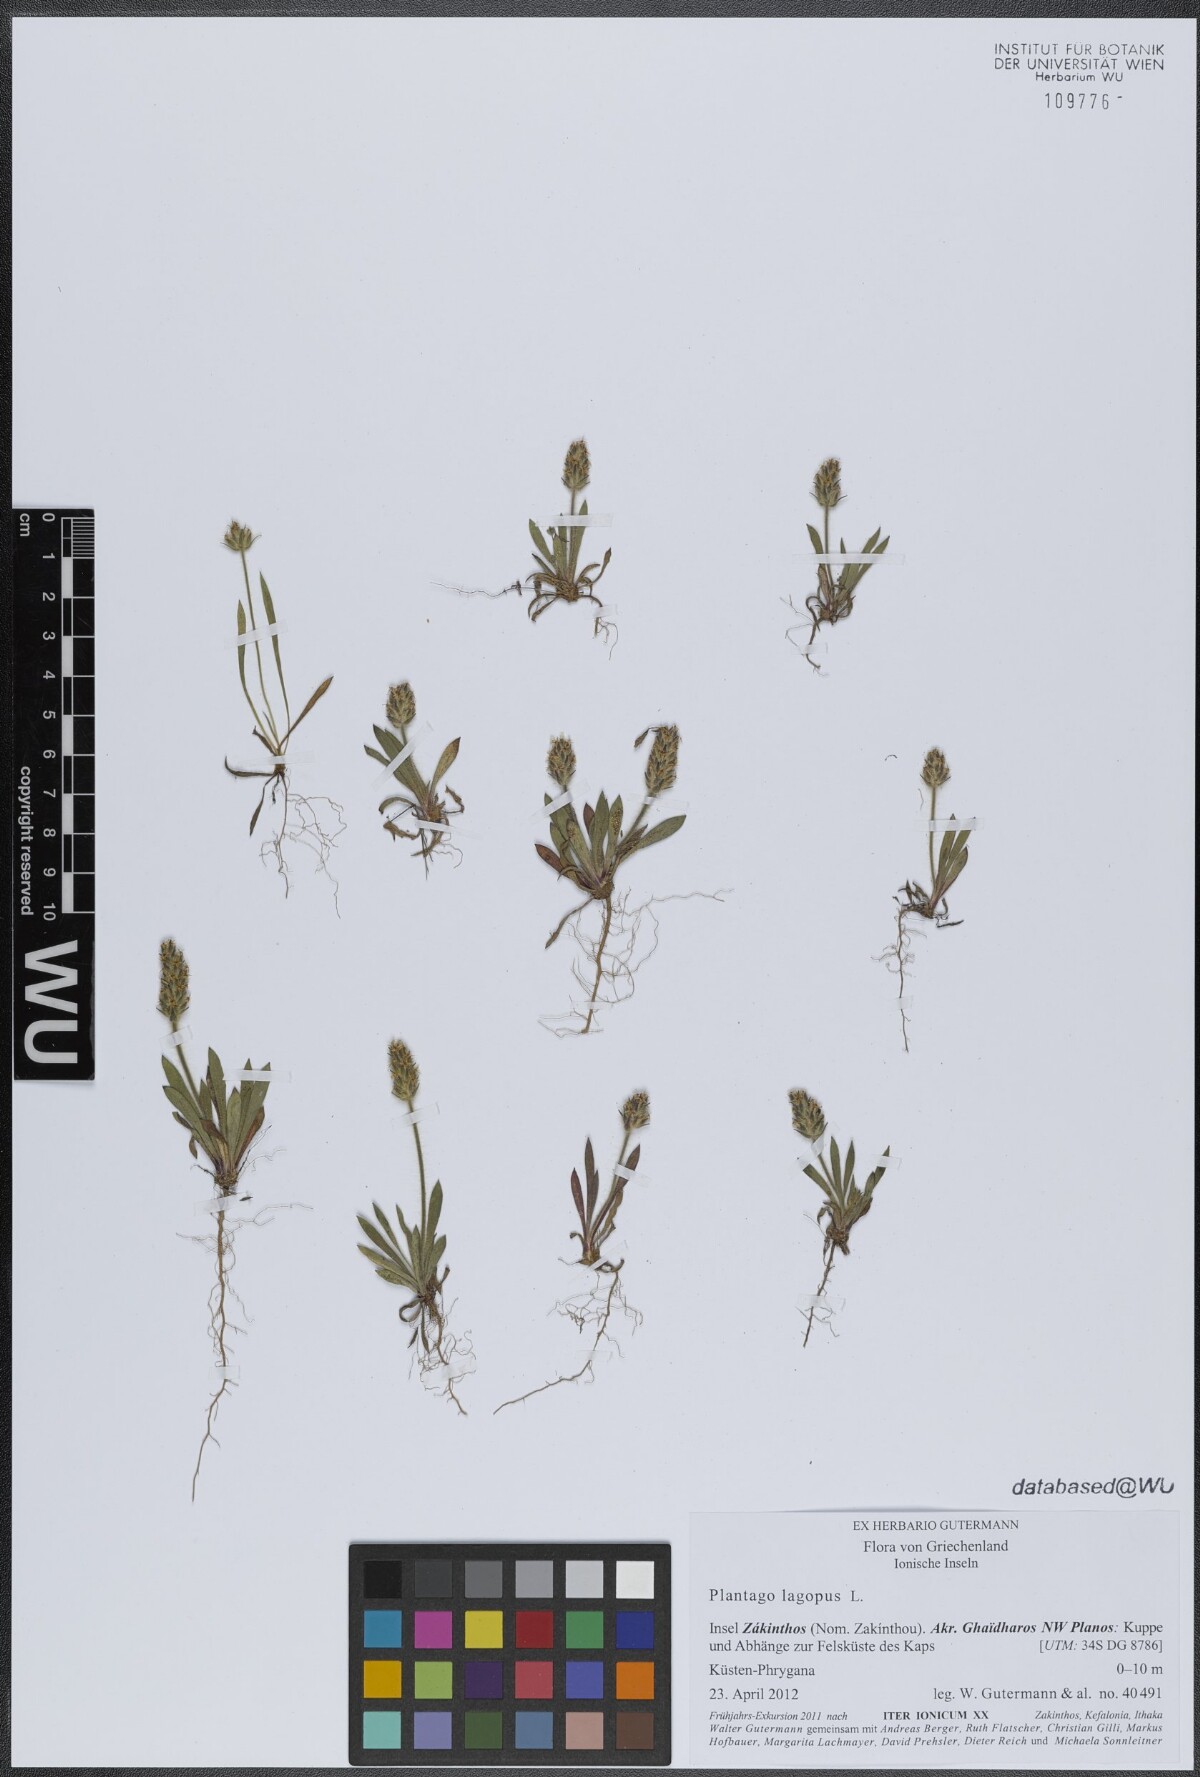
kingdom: Plantae
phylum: Tracheophyta
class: Magnoliopsida
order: Lamiales
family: Plantaginaceae
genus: Plantago
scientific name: Plantago lagopus
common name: Hare-foot plantain
